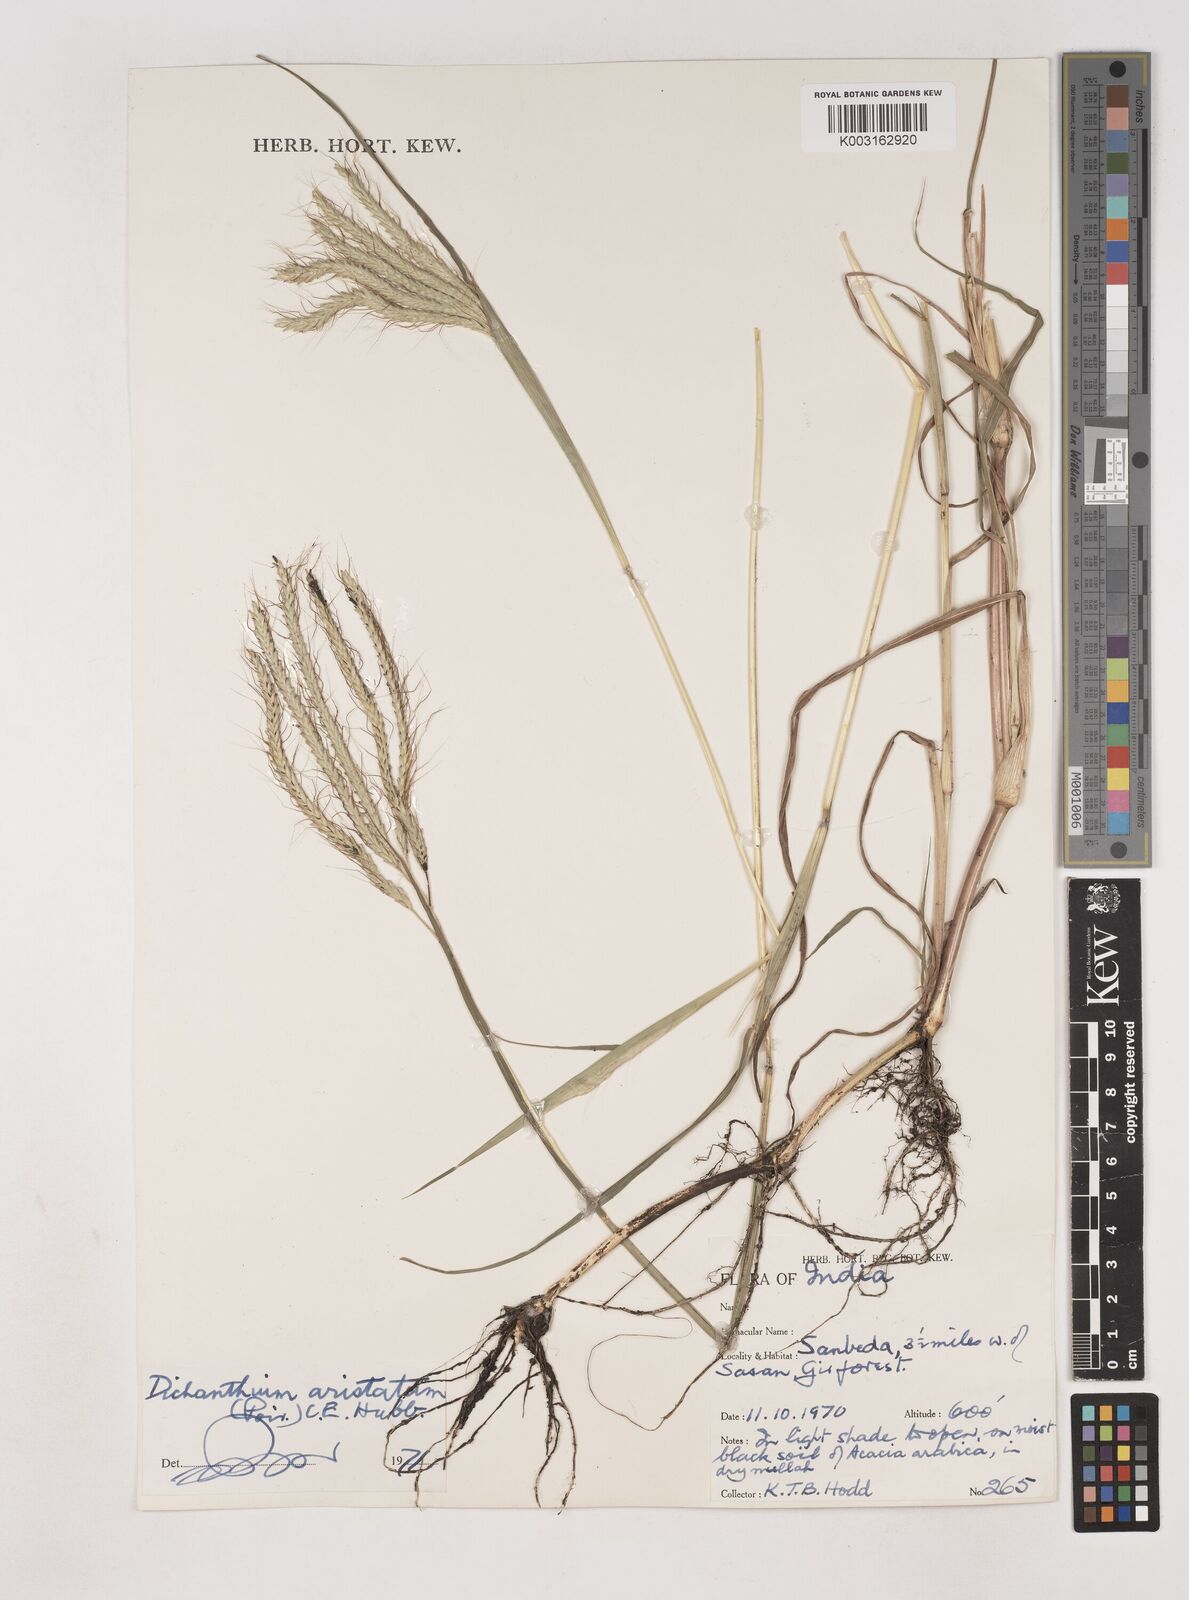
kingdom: Plantae
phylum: Tracheophyta
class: Liliopsida
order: Poales
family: Poaceae
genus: Dichanthium
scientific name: Dichanthium aristatum
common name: Angleton bluestem
